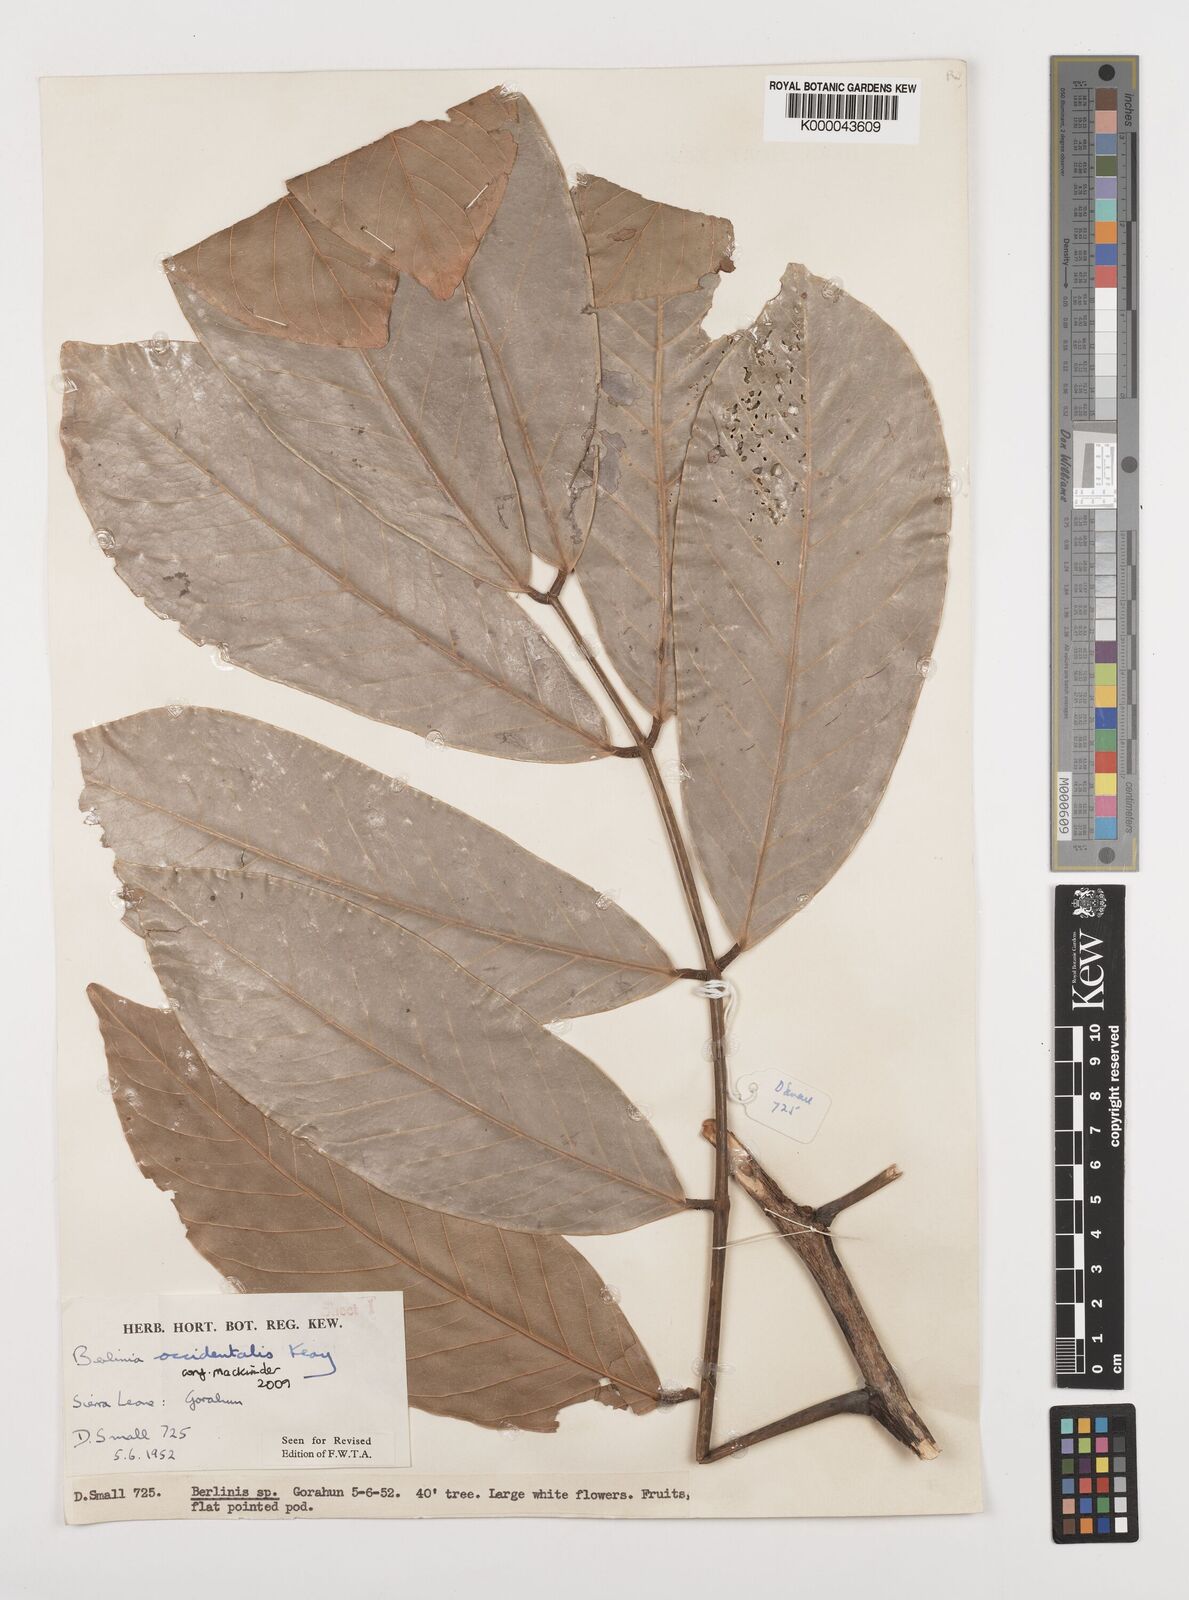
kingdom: Plantae
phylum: Tracheophyta
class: Magnoliopsida
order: Fabales
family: Fabaceae
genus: Berlinia
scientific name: Berlinia occidentalis
